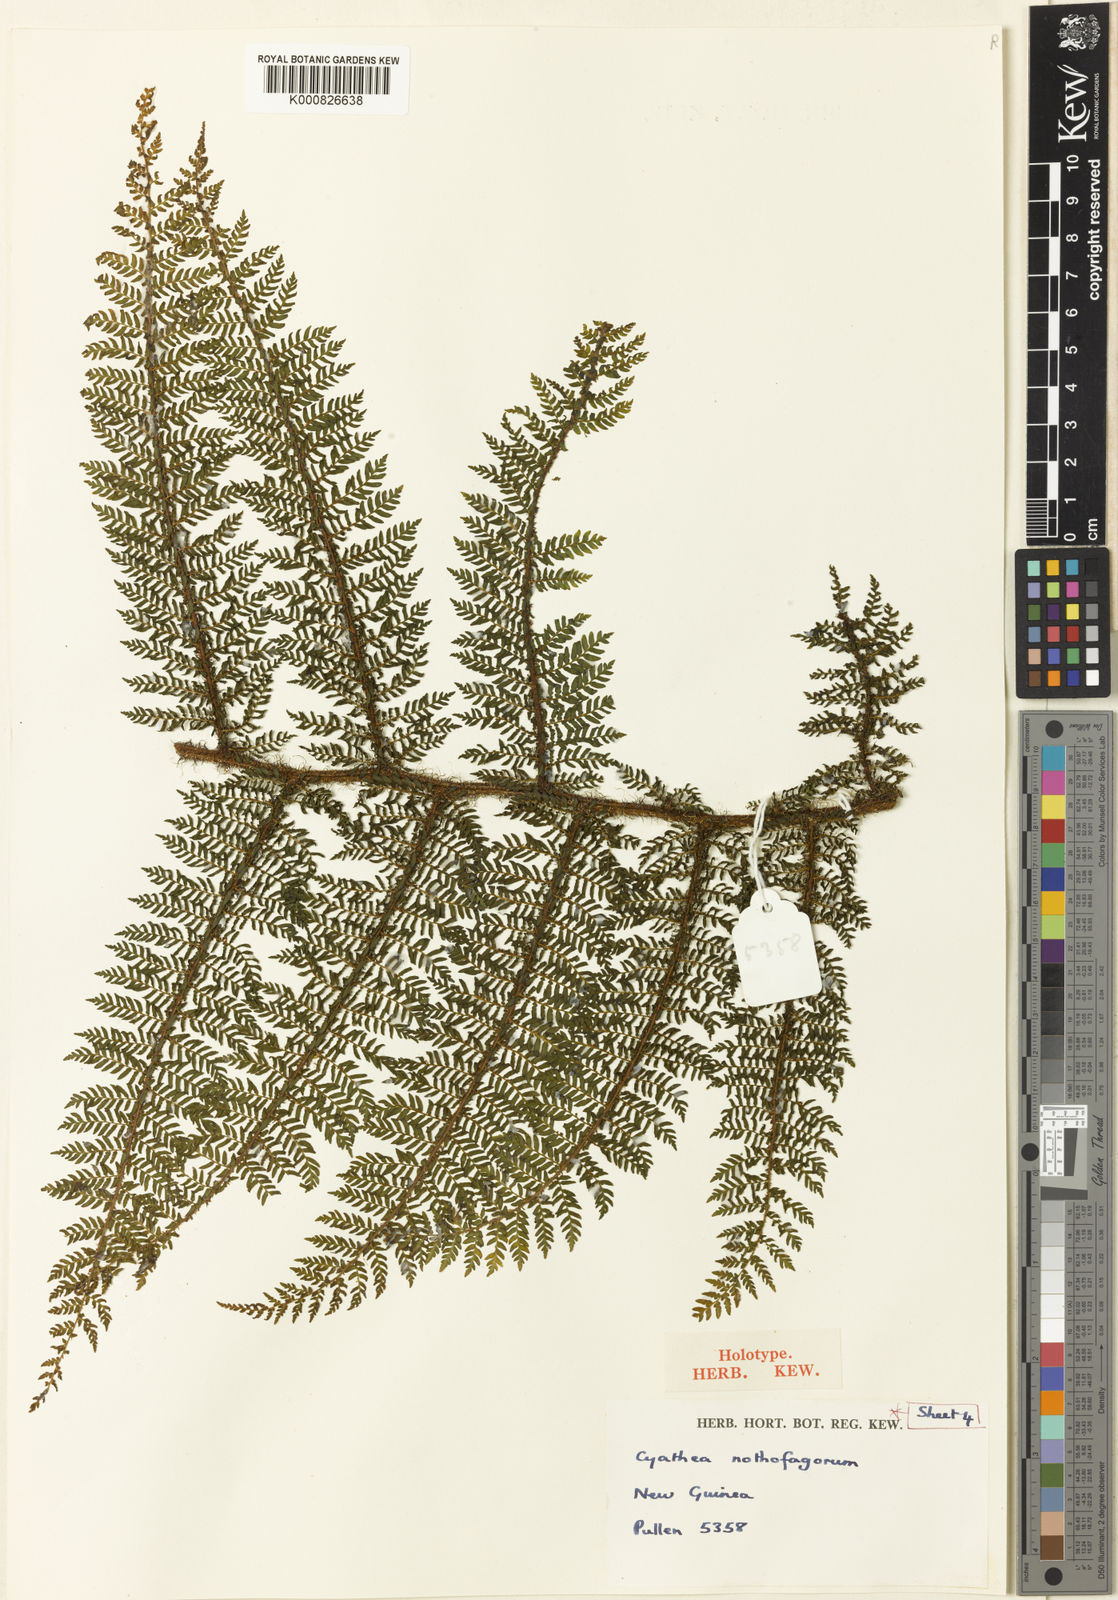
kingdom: Plantae
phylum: Tracheophyta
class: Polypodiopsida
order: Cyatheales
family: Cyatheaceae
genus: Alsophila
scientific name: Alsophila nothofagorum
